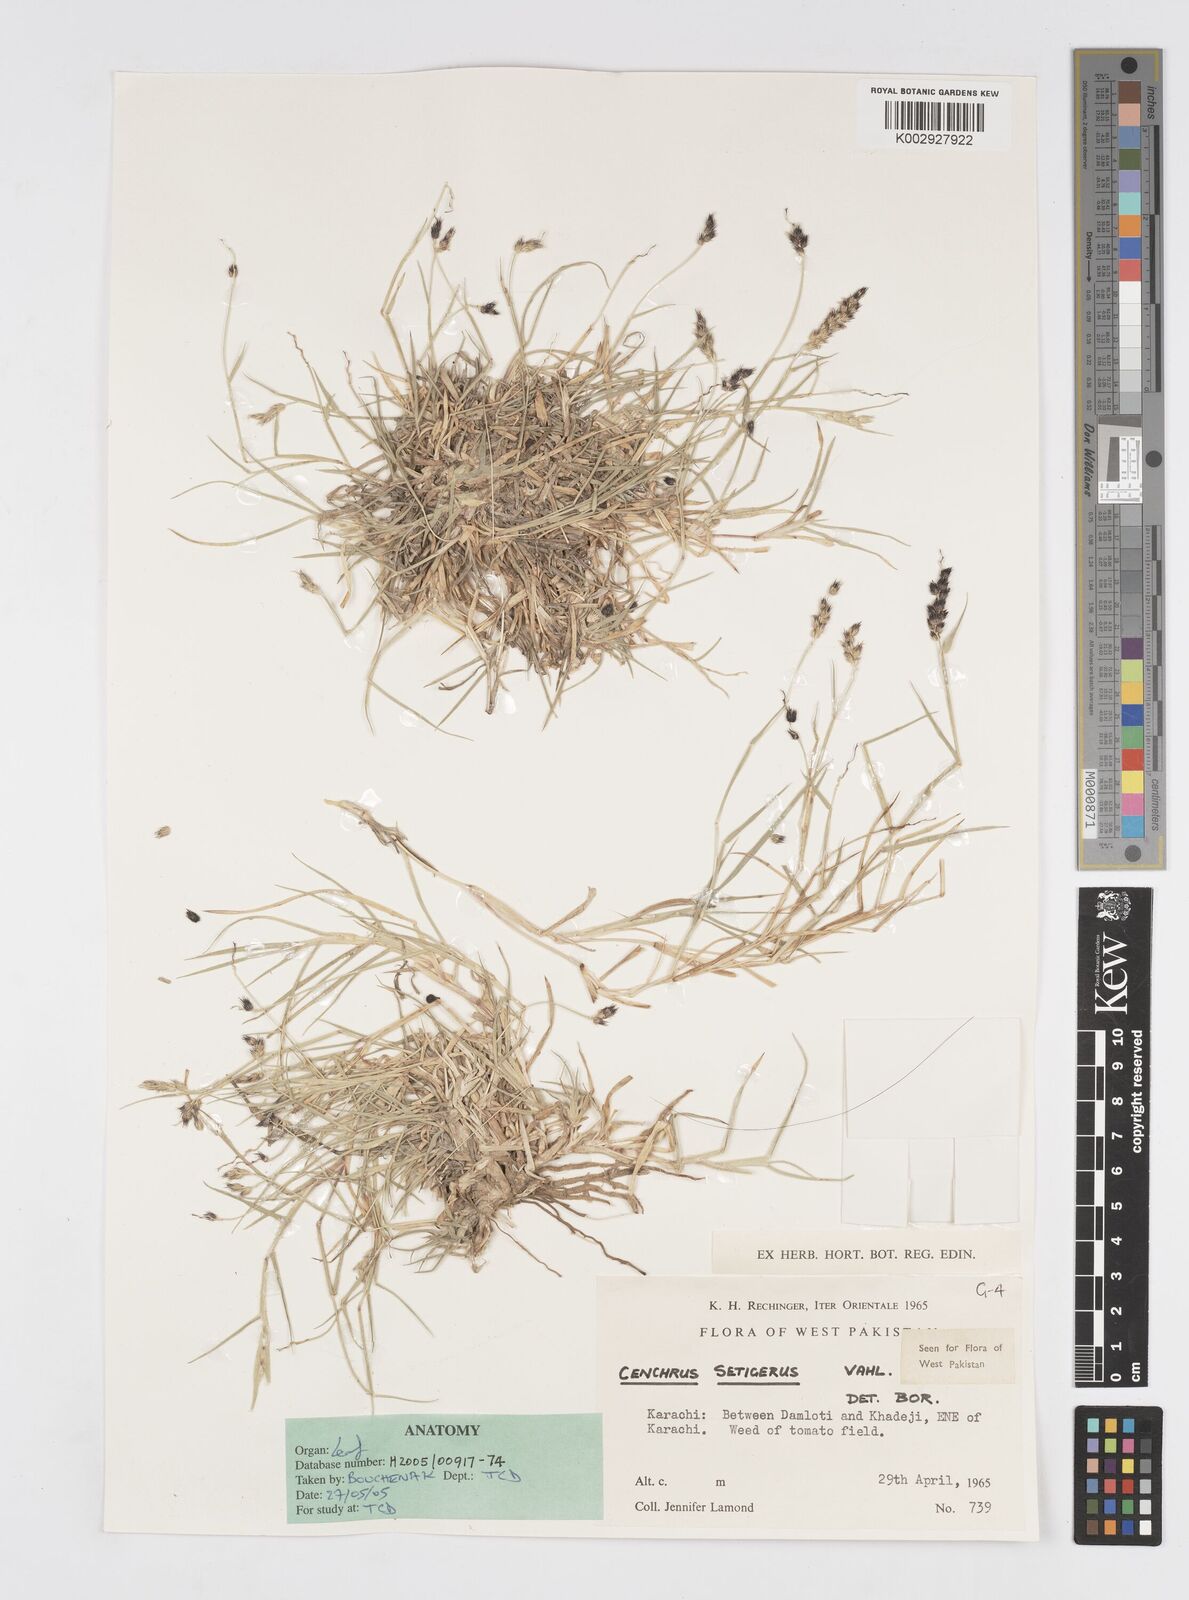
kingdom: Plantae
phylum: Tracheophyta
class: Liliopsida
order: Poales
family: Poaceae
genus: Cenchrus
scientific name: Cenchrus setigerus
